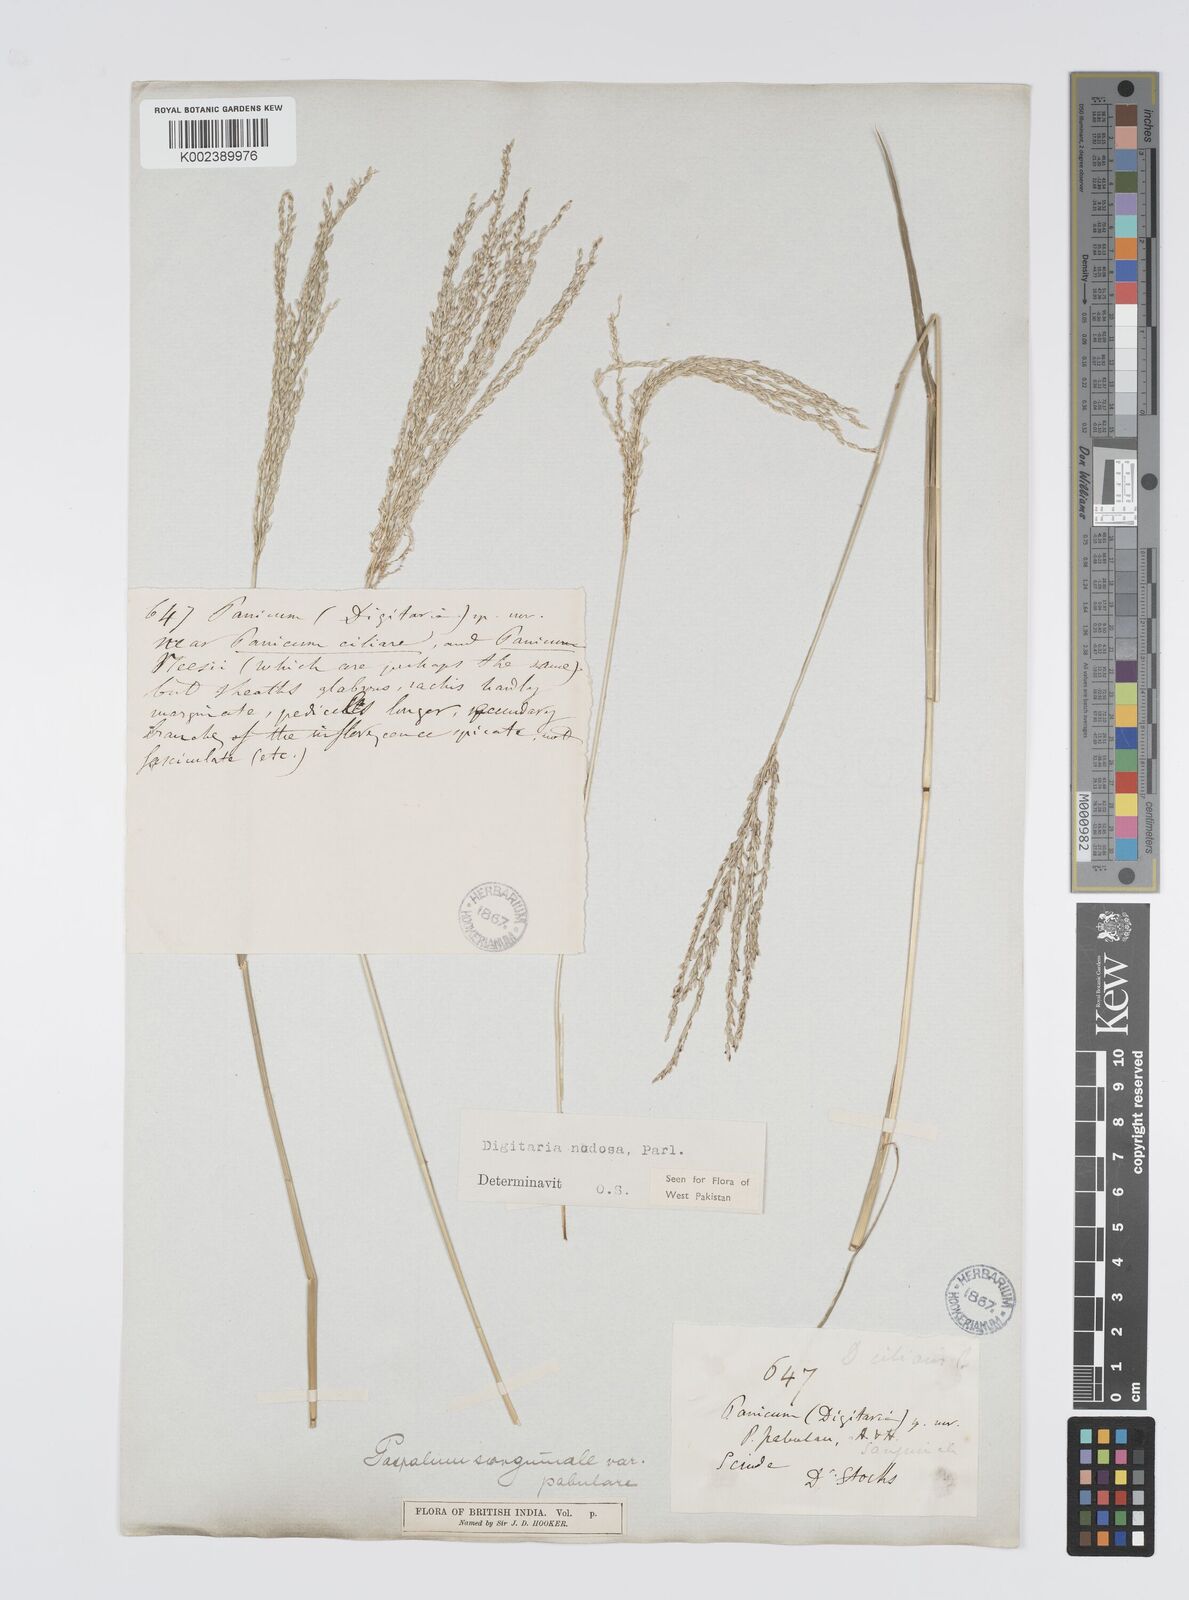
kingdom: Plantae
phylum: Tracheophyta
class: Liliopsida
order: Poales
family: Poaceae
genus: Digitaria
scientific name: Digitaria nodosa
